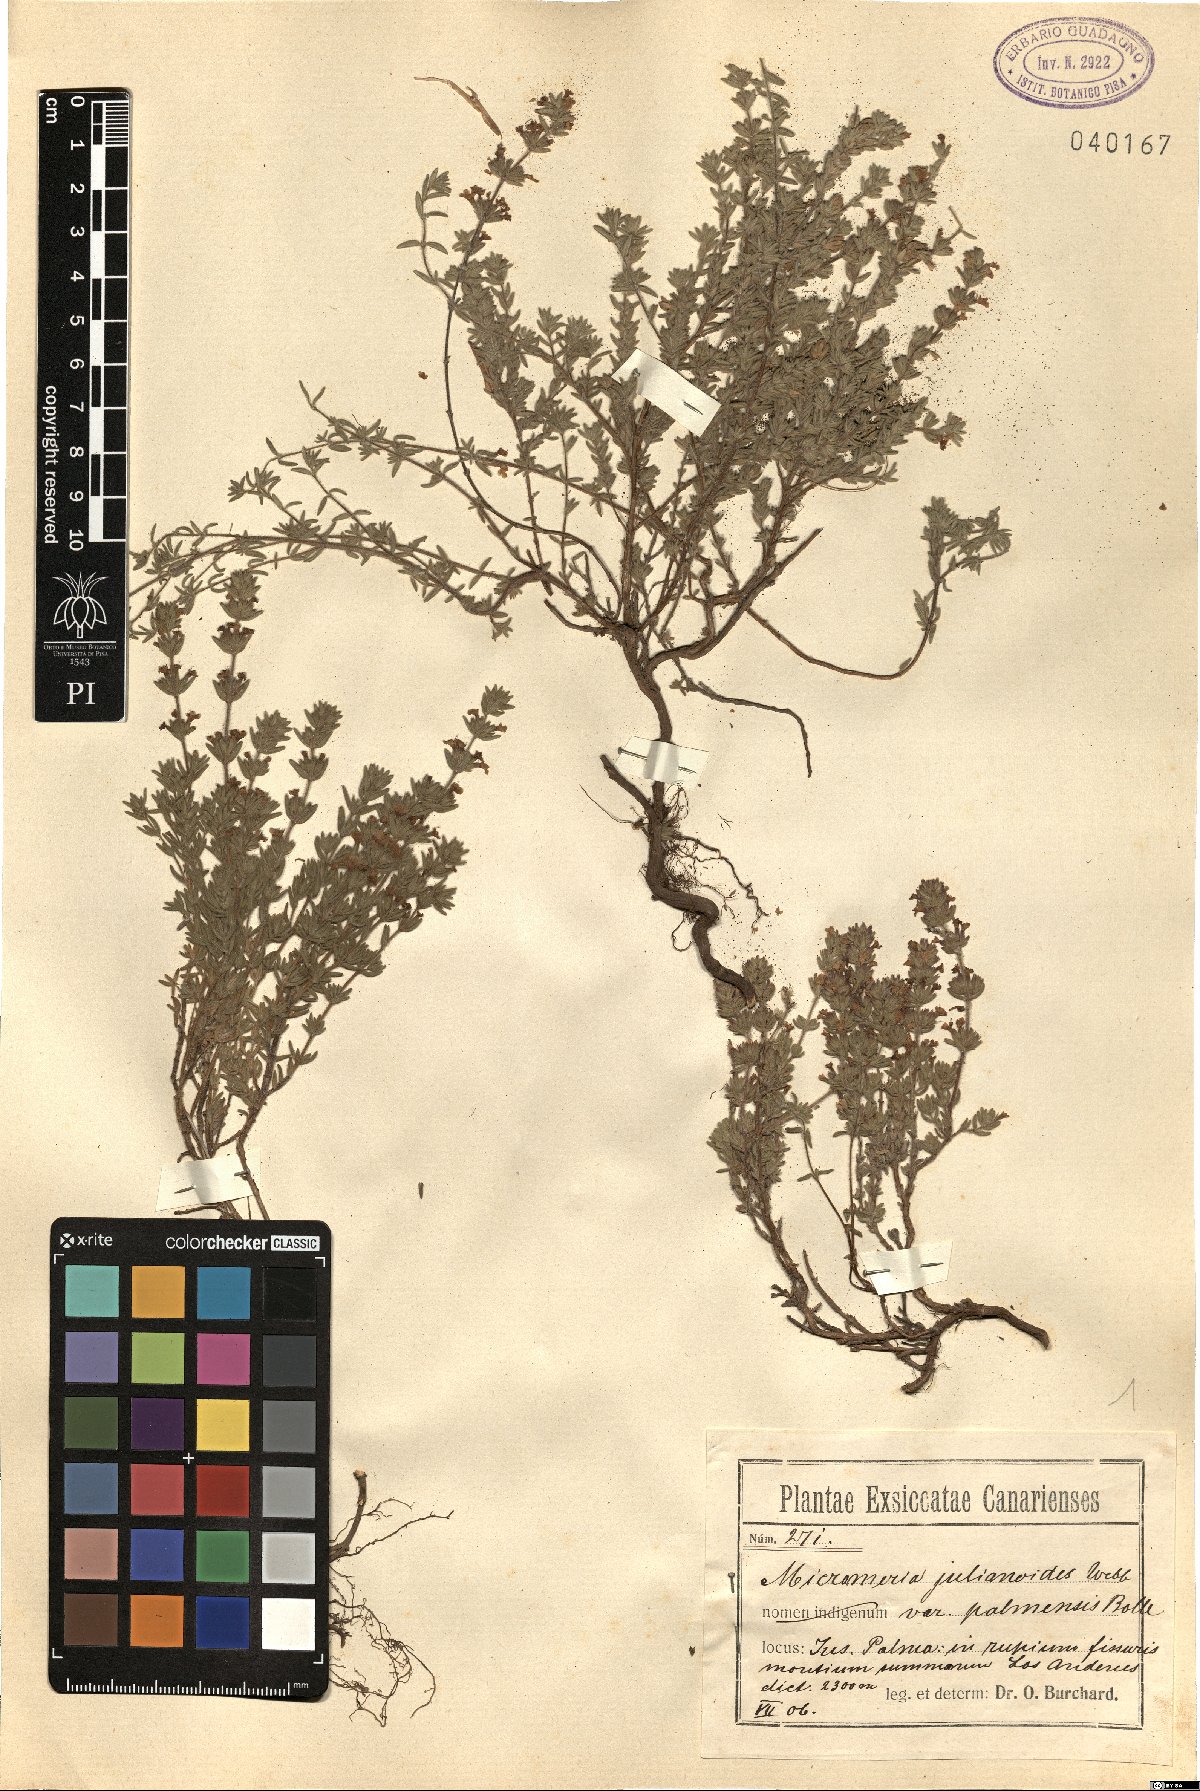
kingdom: Plantae
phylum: Tracheophyta
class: Magnoliopsida
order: Lamiales
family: Lamiaceae
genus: Micromeria
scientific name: Micromeria herpyllomorpha
